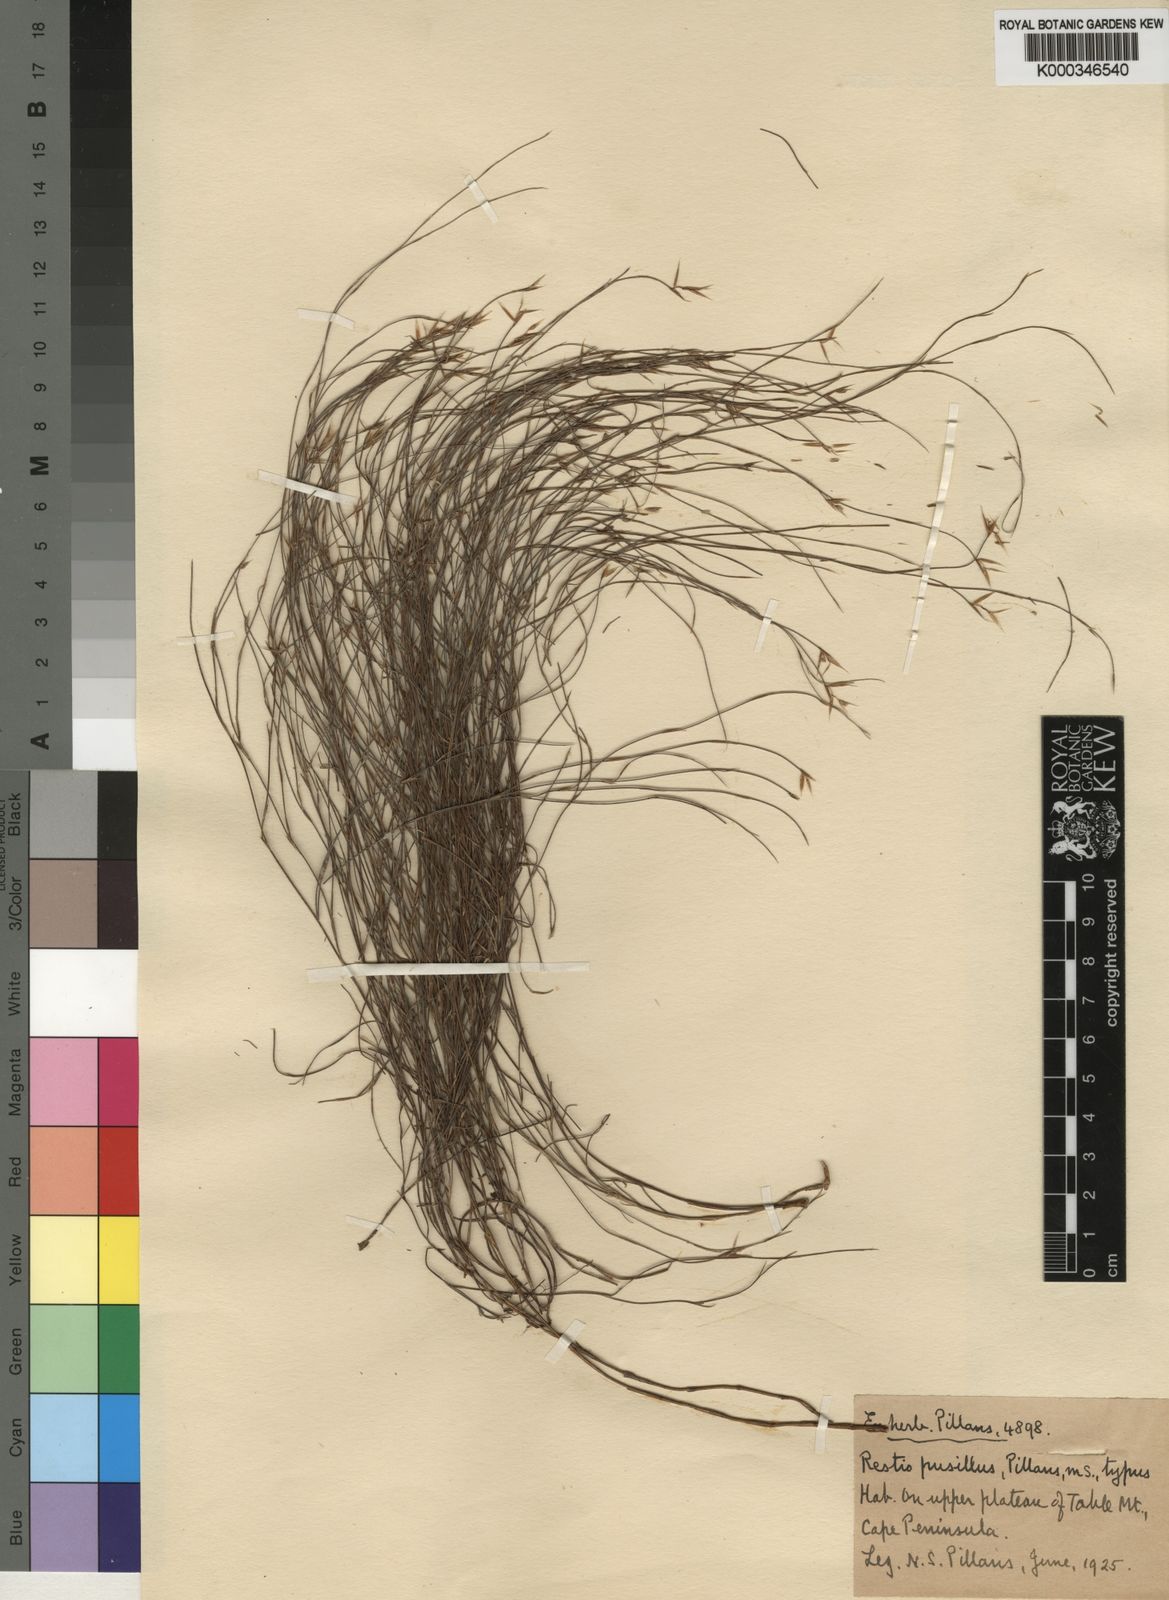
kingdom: Plantae
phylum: Tracheophyta
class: Liliopsida
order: Poales
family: Restionaceae
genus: Restio
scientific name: Restio leptostachyus
